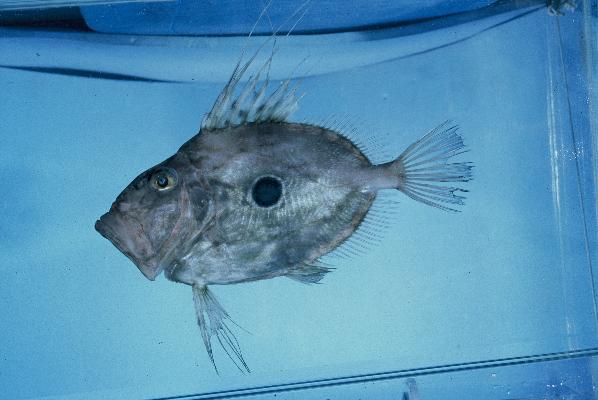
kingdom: Animalia
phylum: Chordata
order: Zeiformes
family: Zeidae
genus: Zeus
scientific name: Zeus faber
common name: John dory
